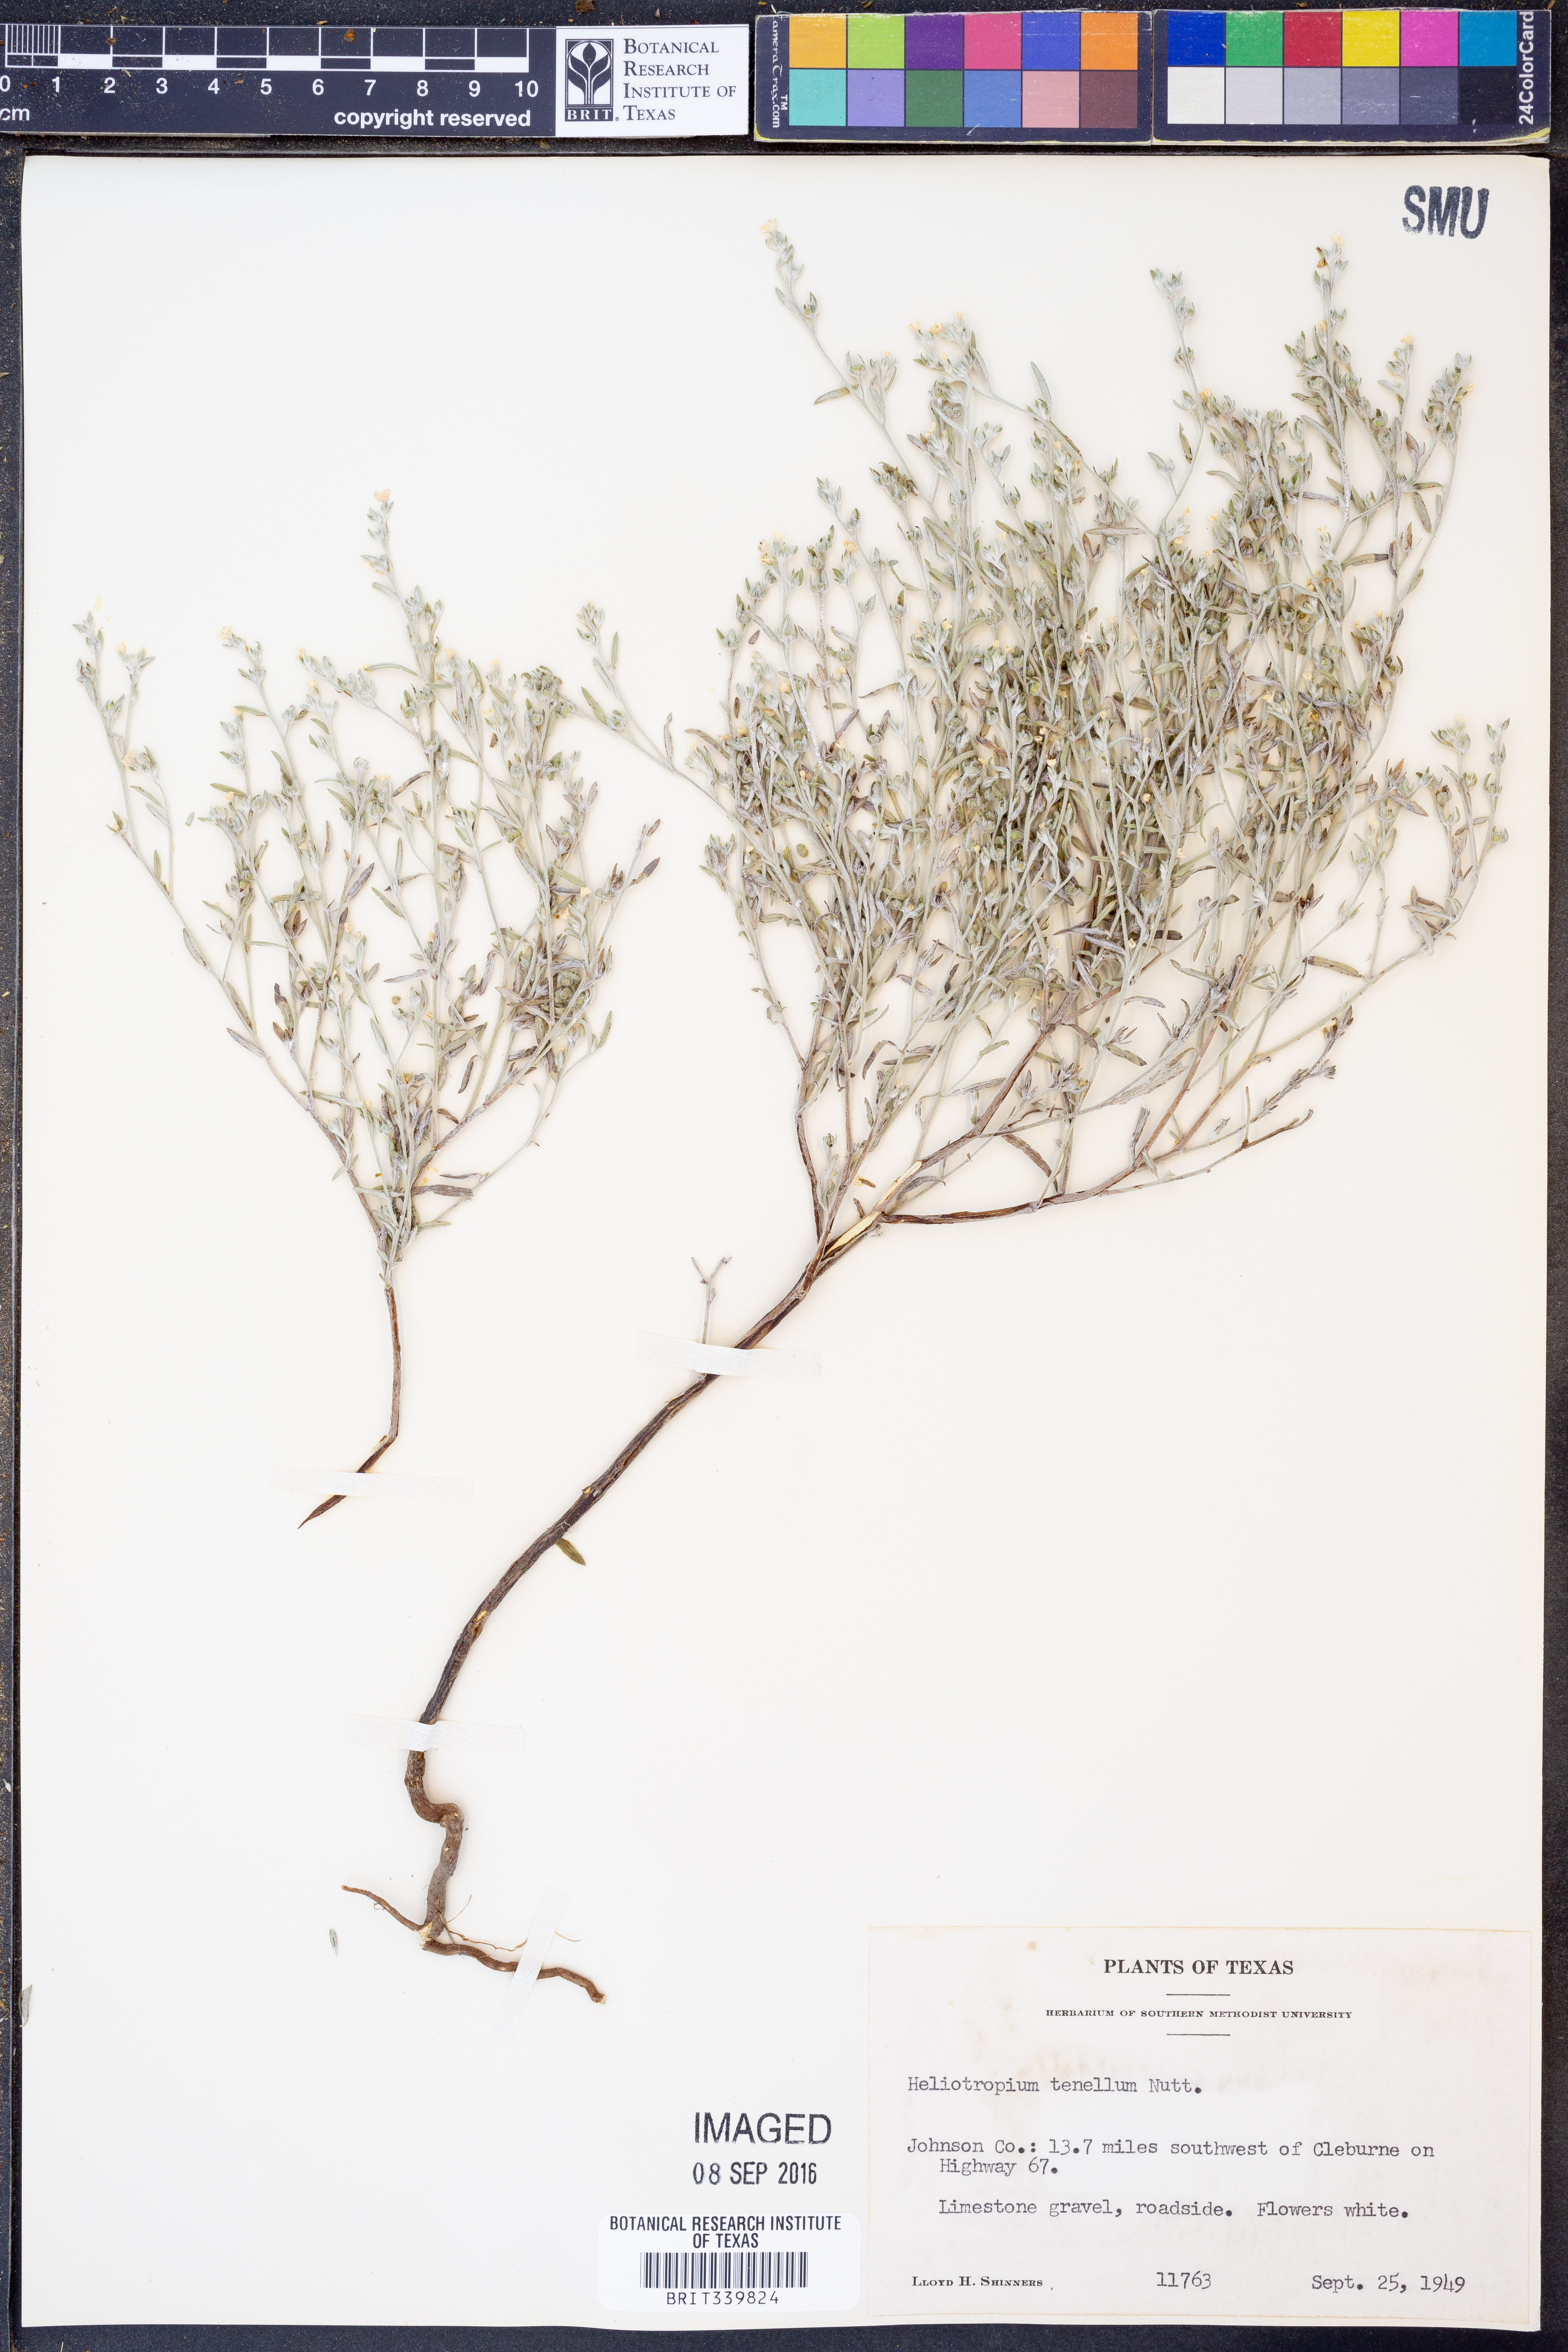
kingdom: Plantae
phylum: Tracheophyta
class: Magnoliopsida
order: Boraginales
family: Heliotropiaceae
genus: Euploca
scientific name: Euploca tenella
